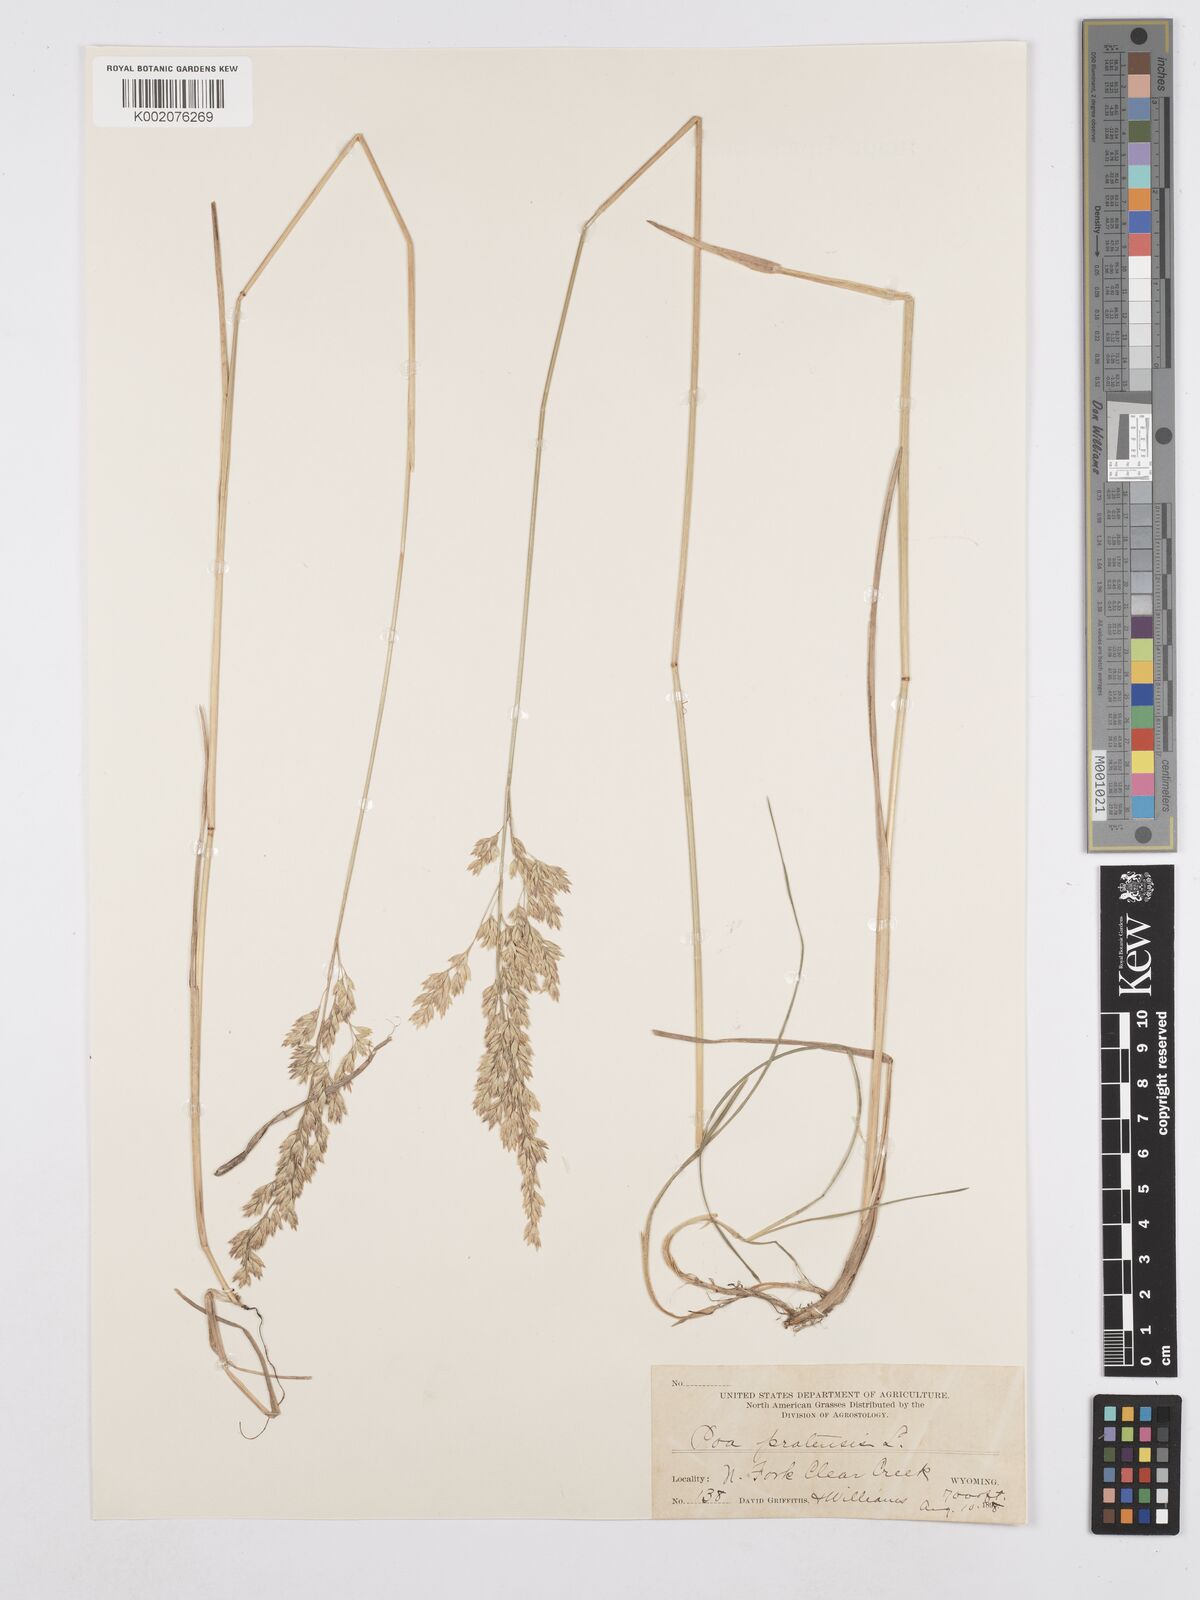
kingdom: Plantae
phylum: Tracheophyta
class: Liliopsida
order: Poales
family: Poaceae
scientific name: Poaceae
